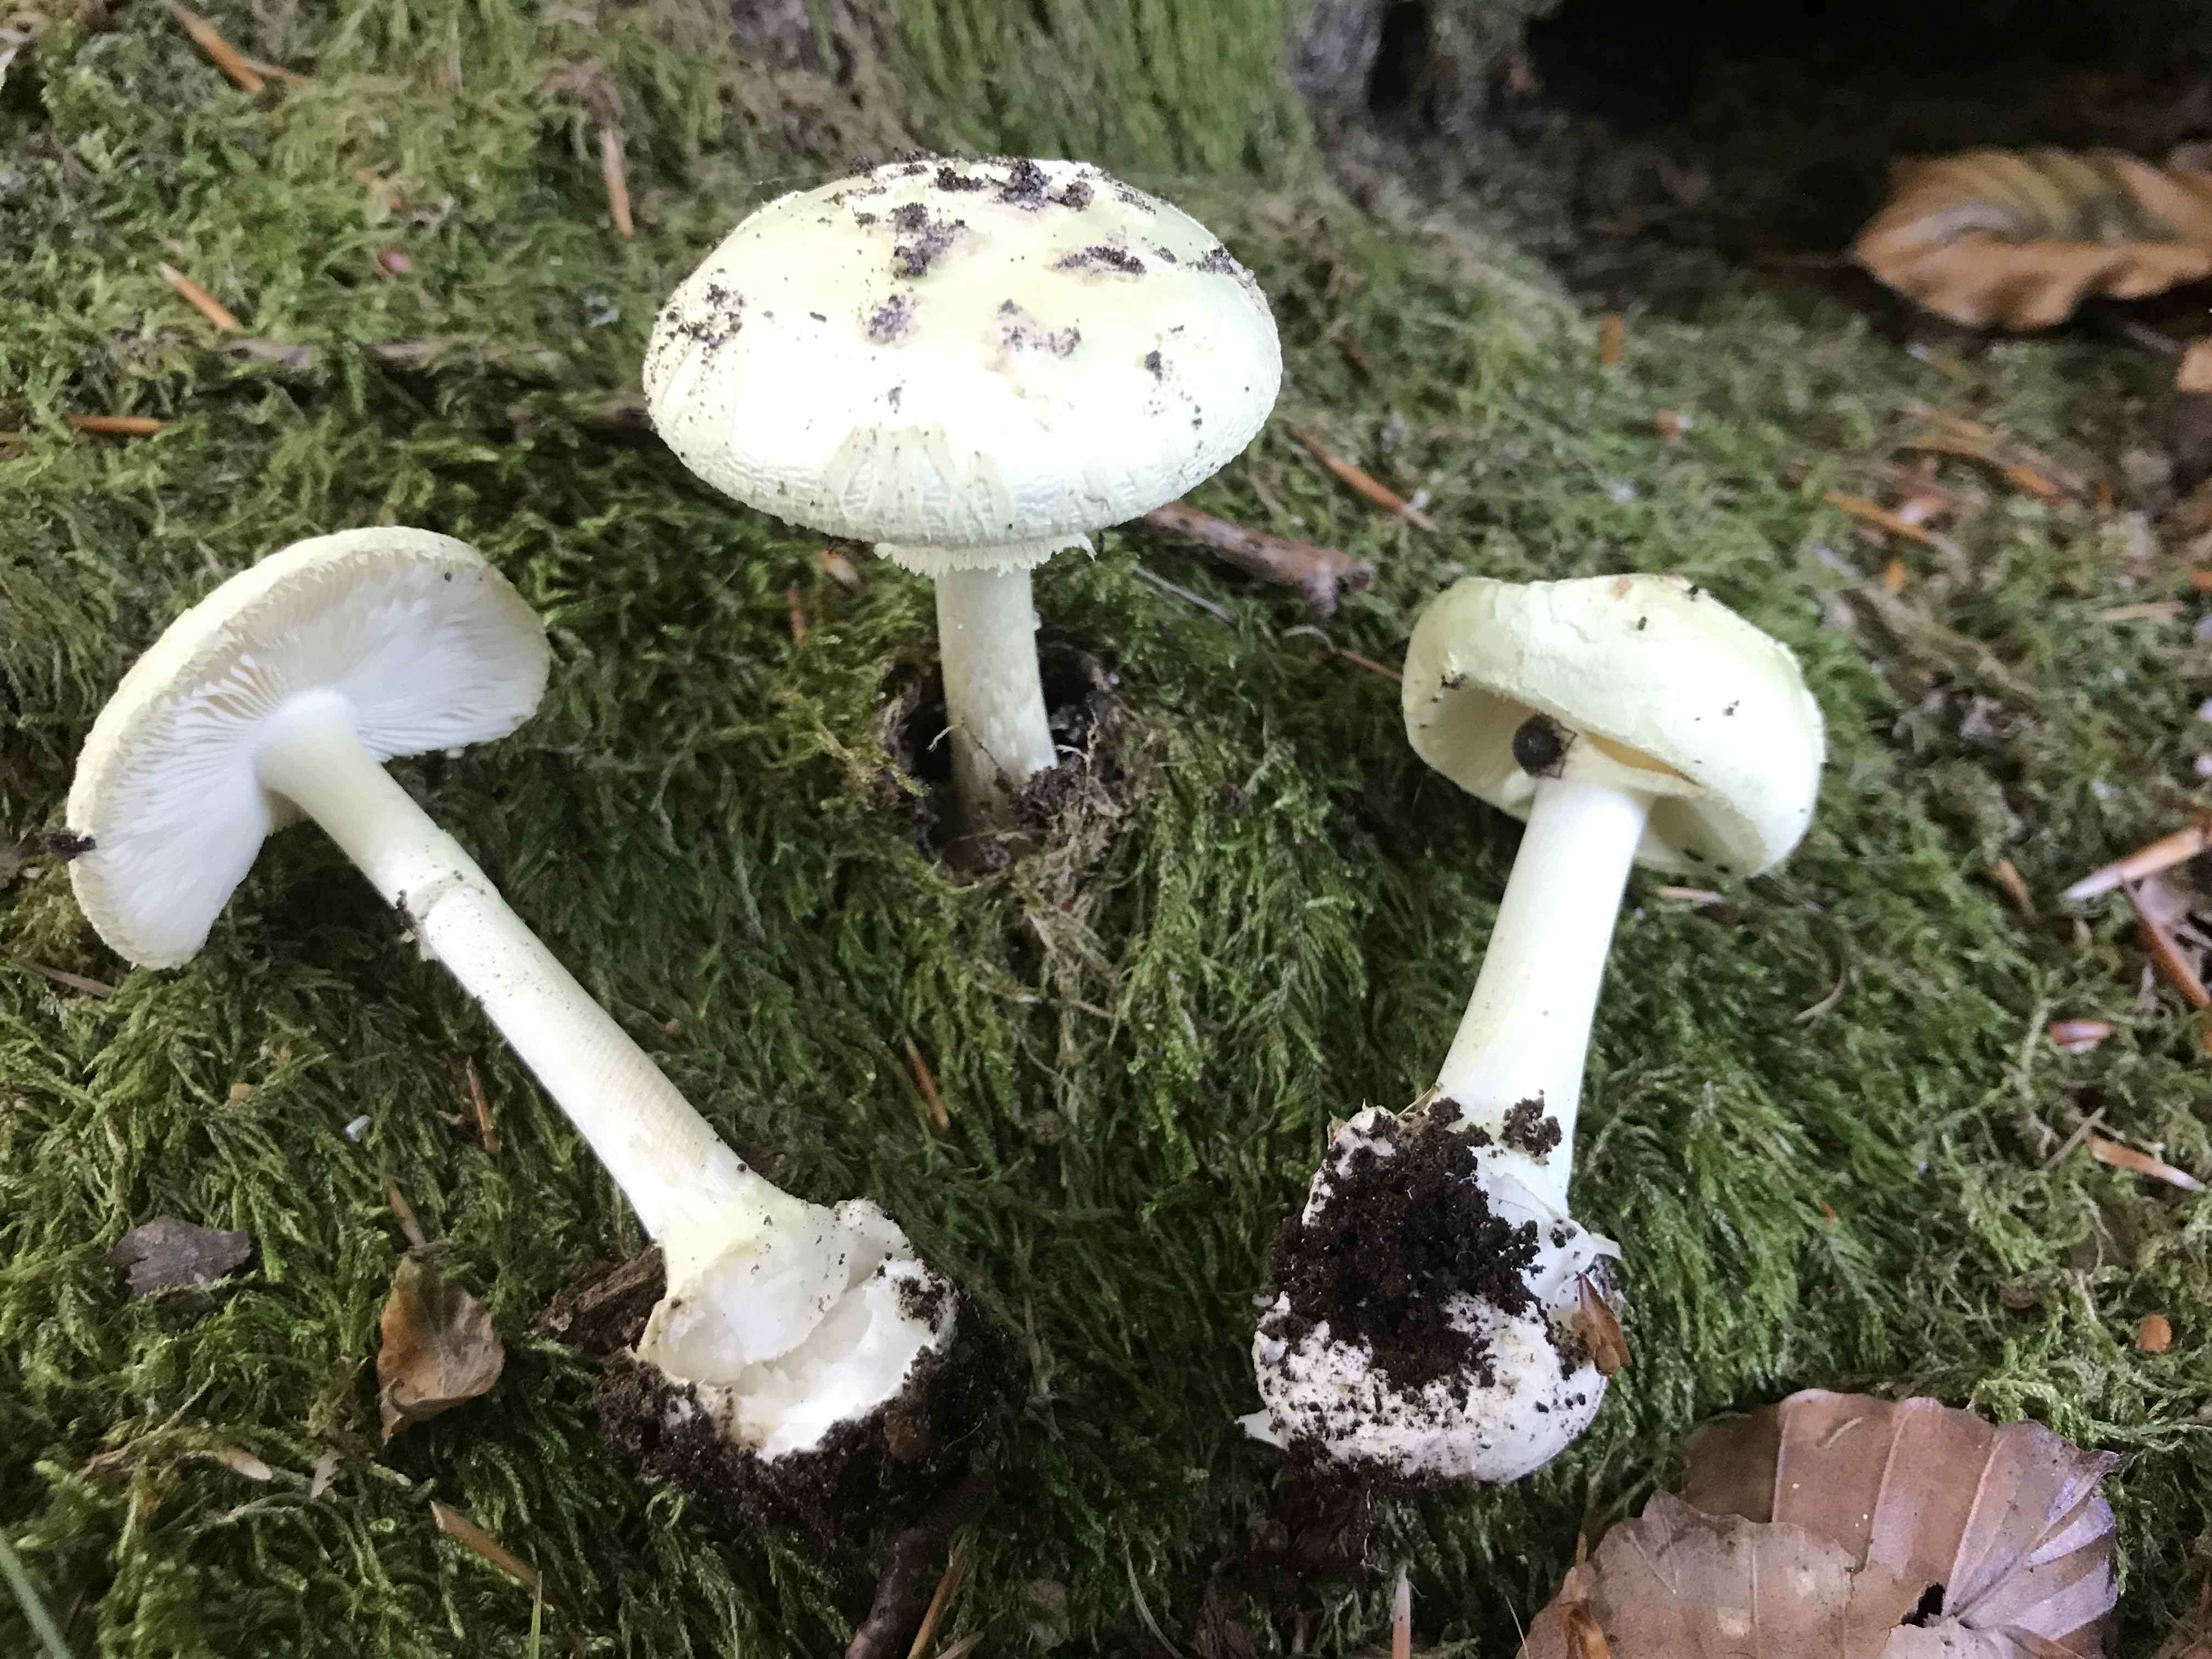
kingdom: Fungi
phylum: Basidiomycota
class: Agaricomycetes
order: Agaricales
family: Amanitaceae
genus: Amanita
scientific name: Amanita citrina
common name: kugleknoldet fluesvamp
